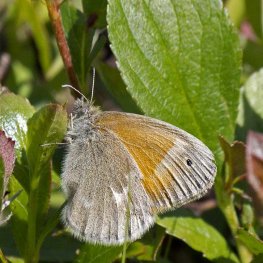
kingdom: Animalia
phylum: Arthropoda
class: Insecta
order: Lepidoptera
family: Nymphalidae
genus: Coenonympha
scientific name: Coenonympha tullia
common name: Large Heath
